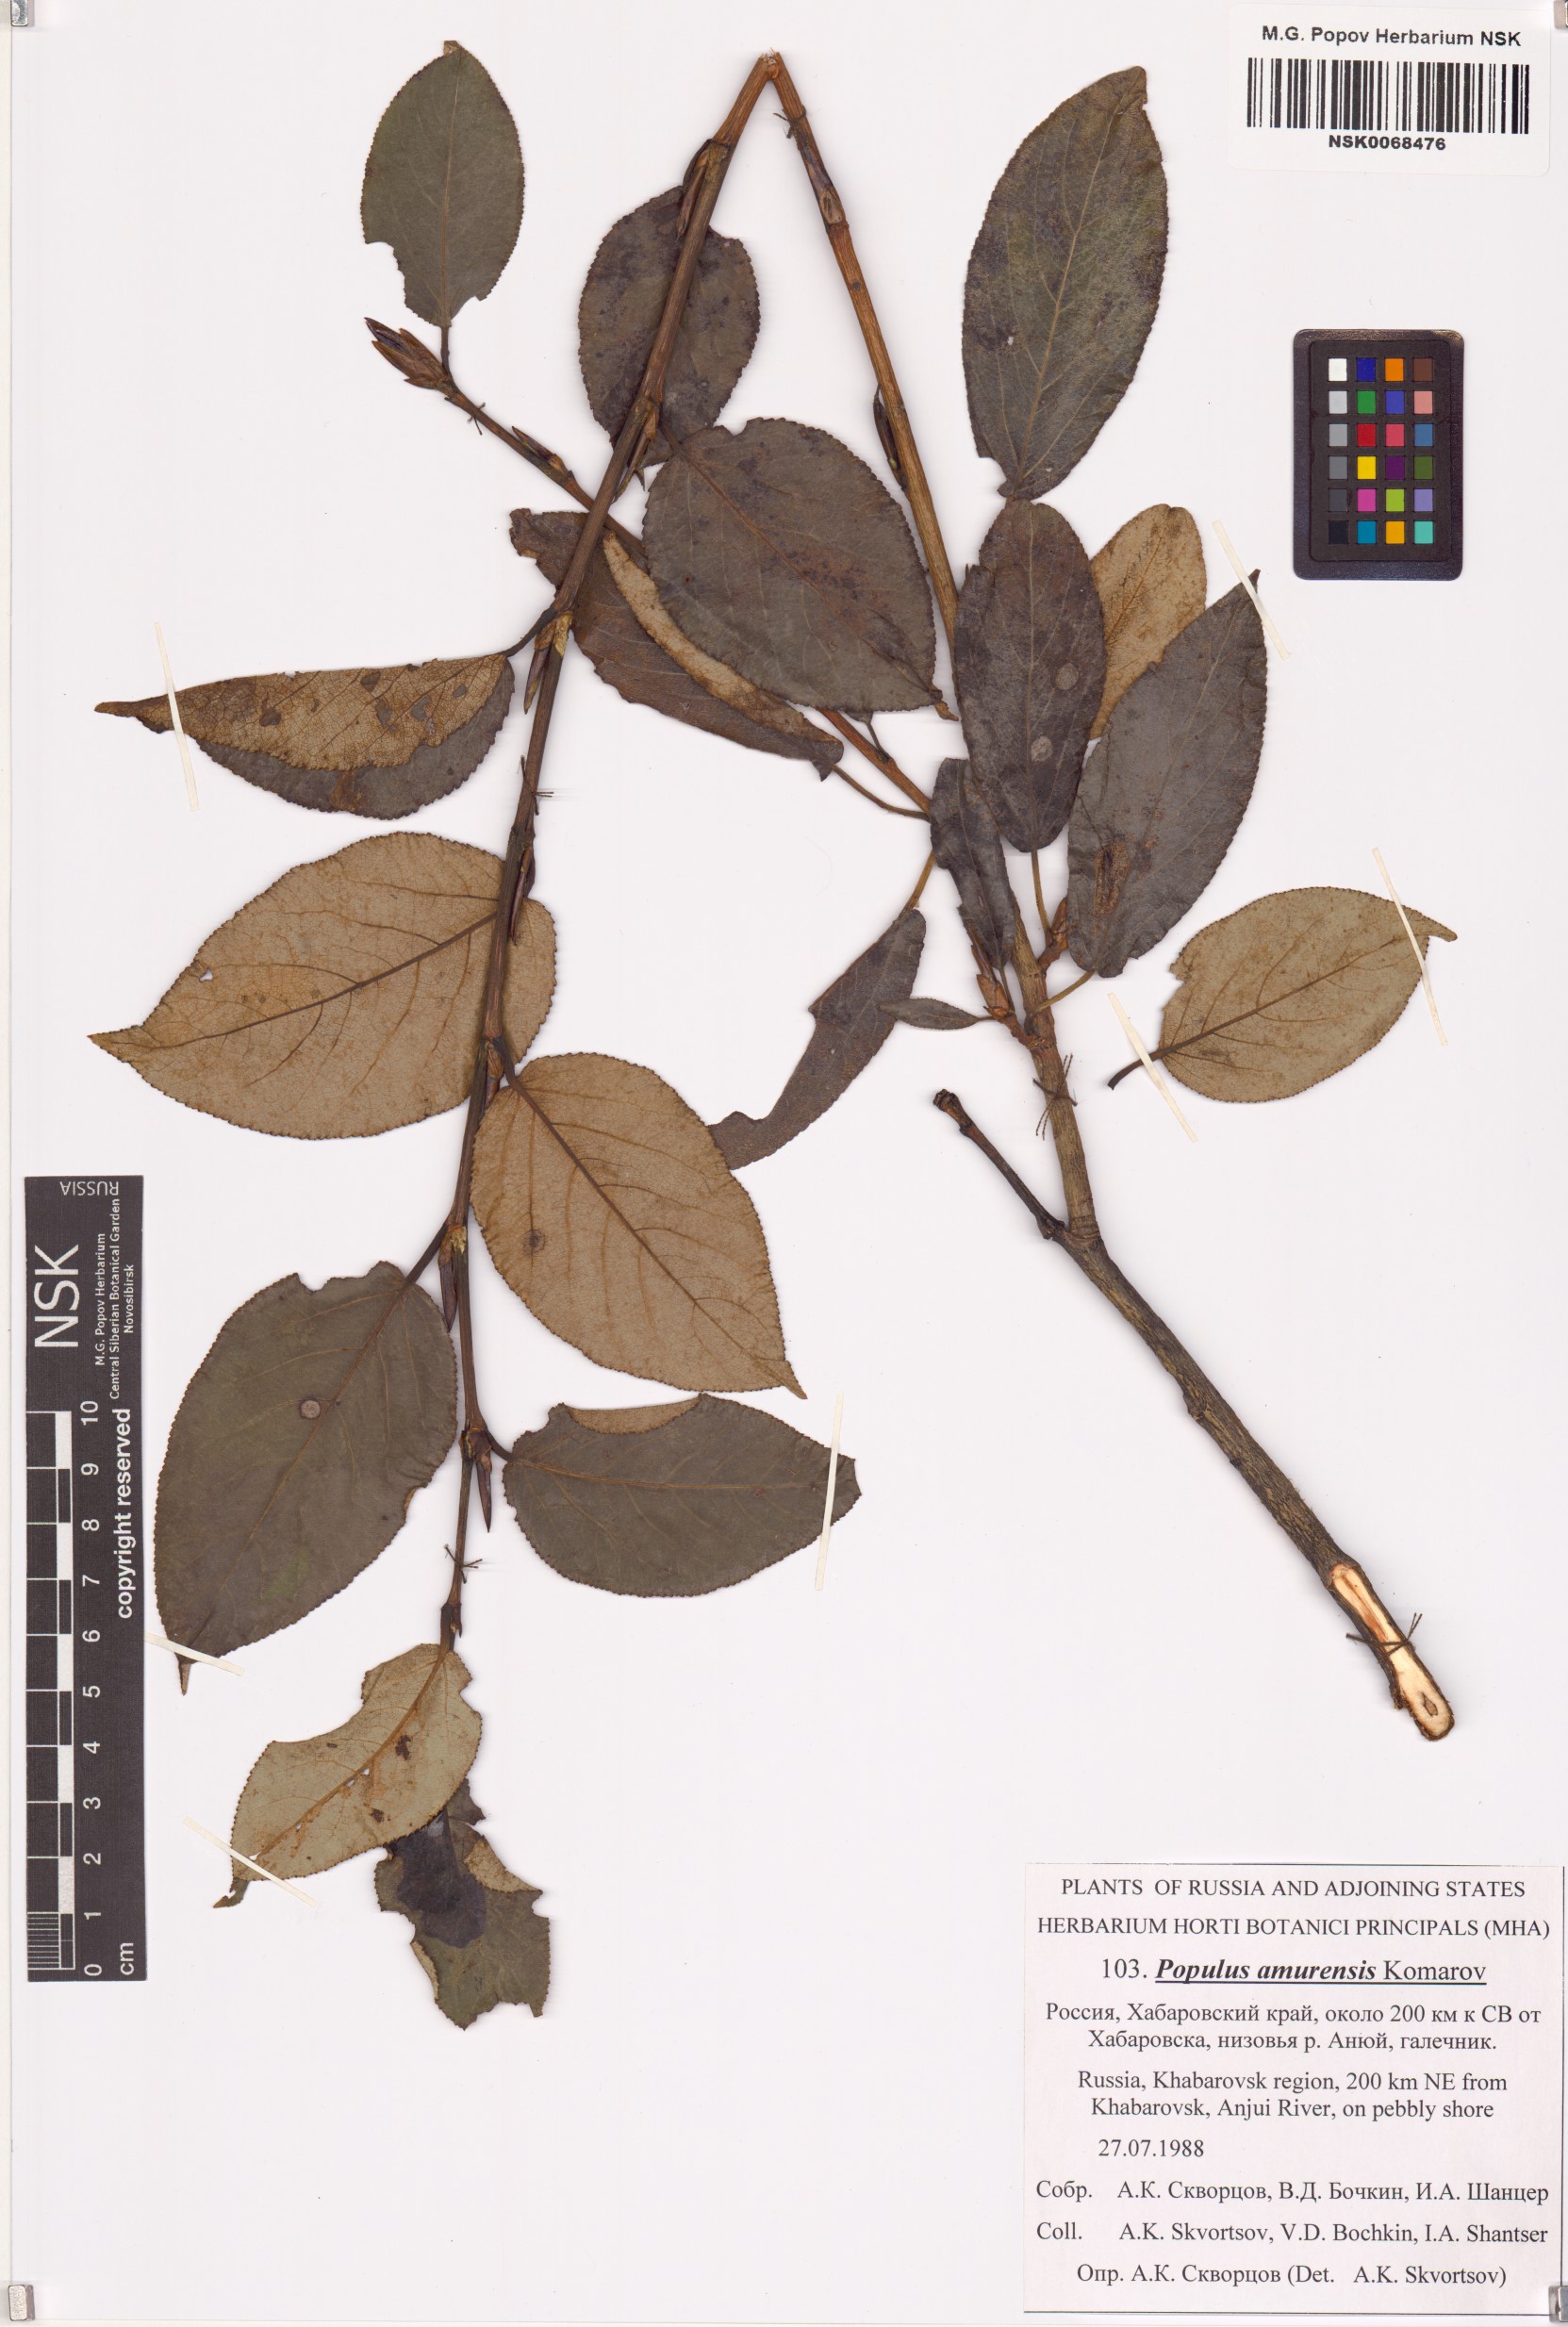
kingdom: Plantae
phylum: Tracheophyta
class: Magnoliopsida
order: Malpighiales
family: Salicaceae
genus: Populus
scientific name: Populus amurensis
